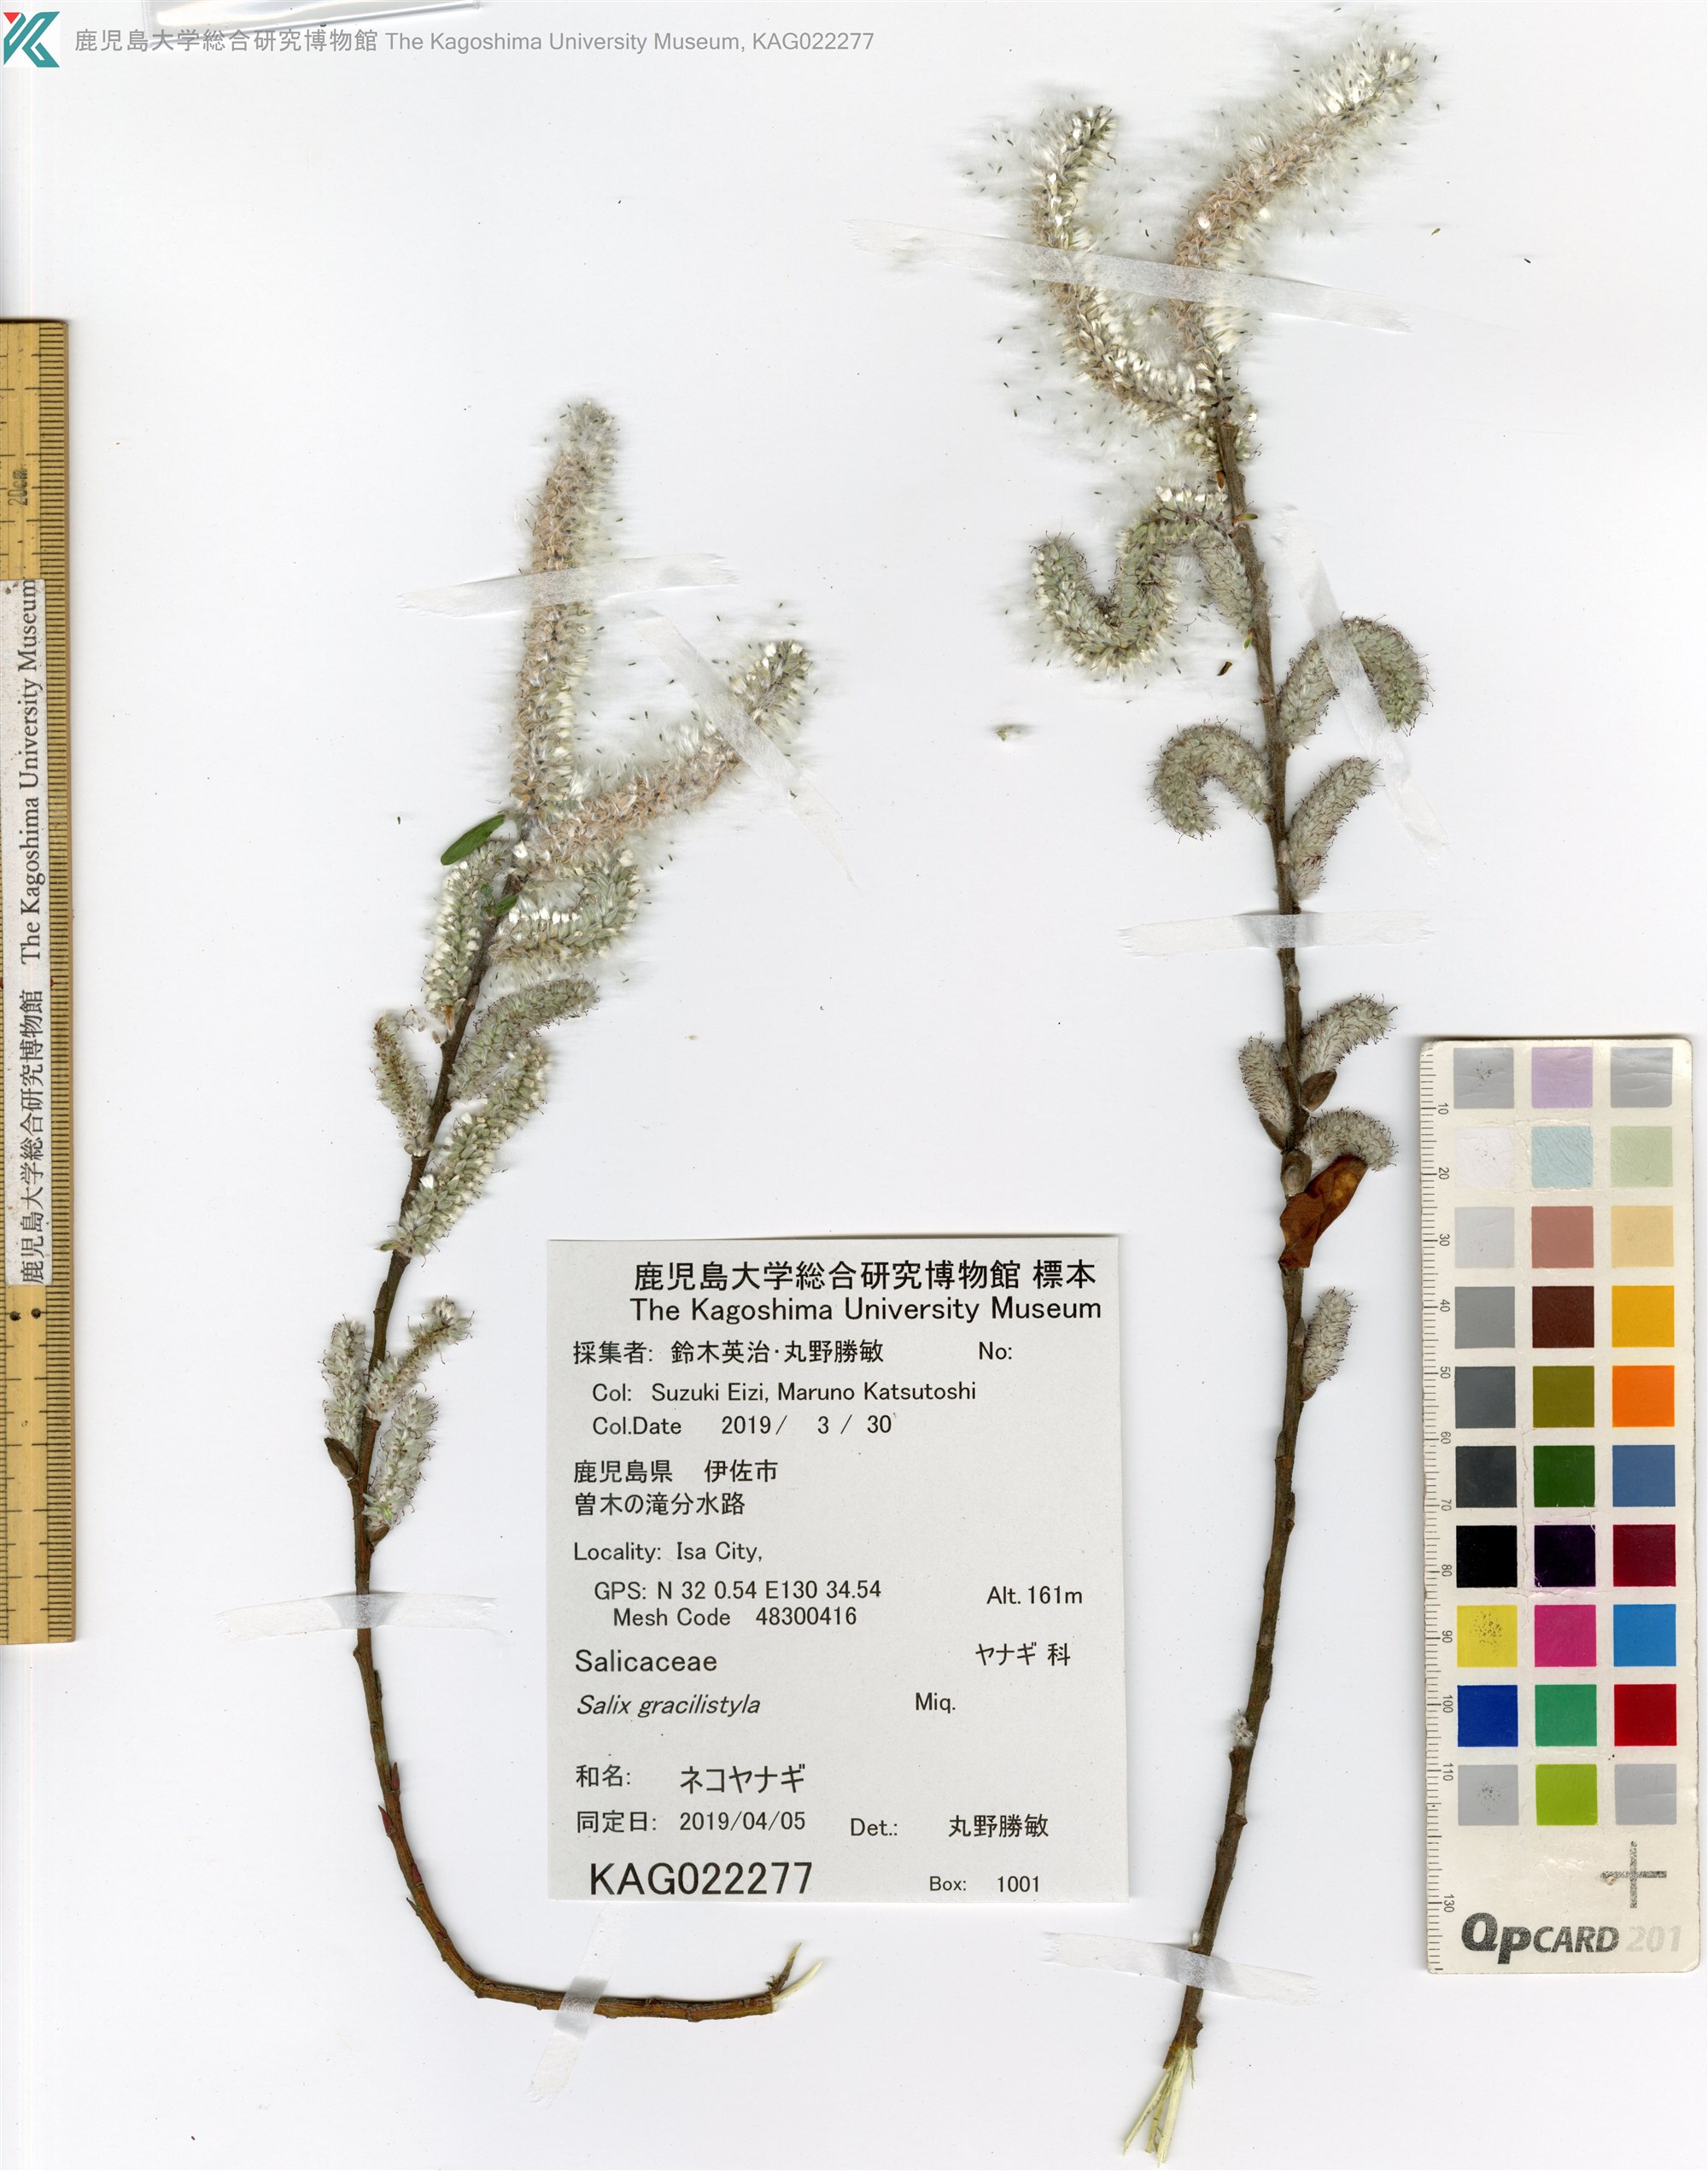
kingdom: Plantae
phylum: Tracheophyta
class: Magnoliopsida
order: Malpighiales
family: Salicaceae
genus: Salix
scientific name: Salix gracilistyla
